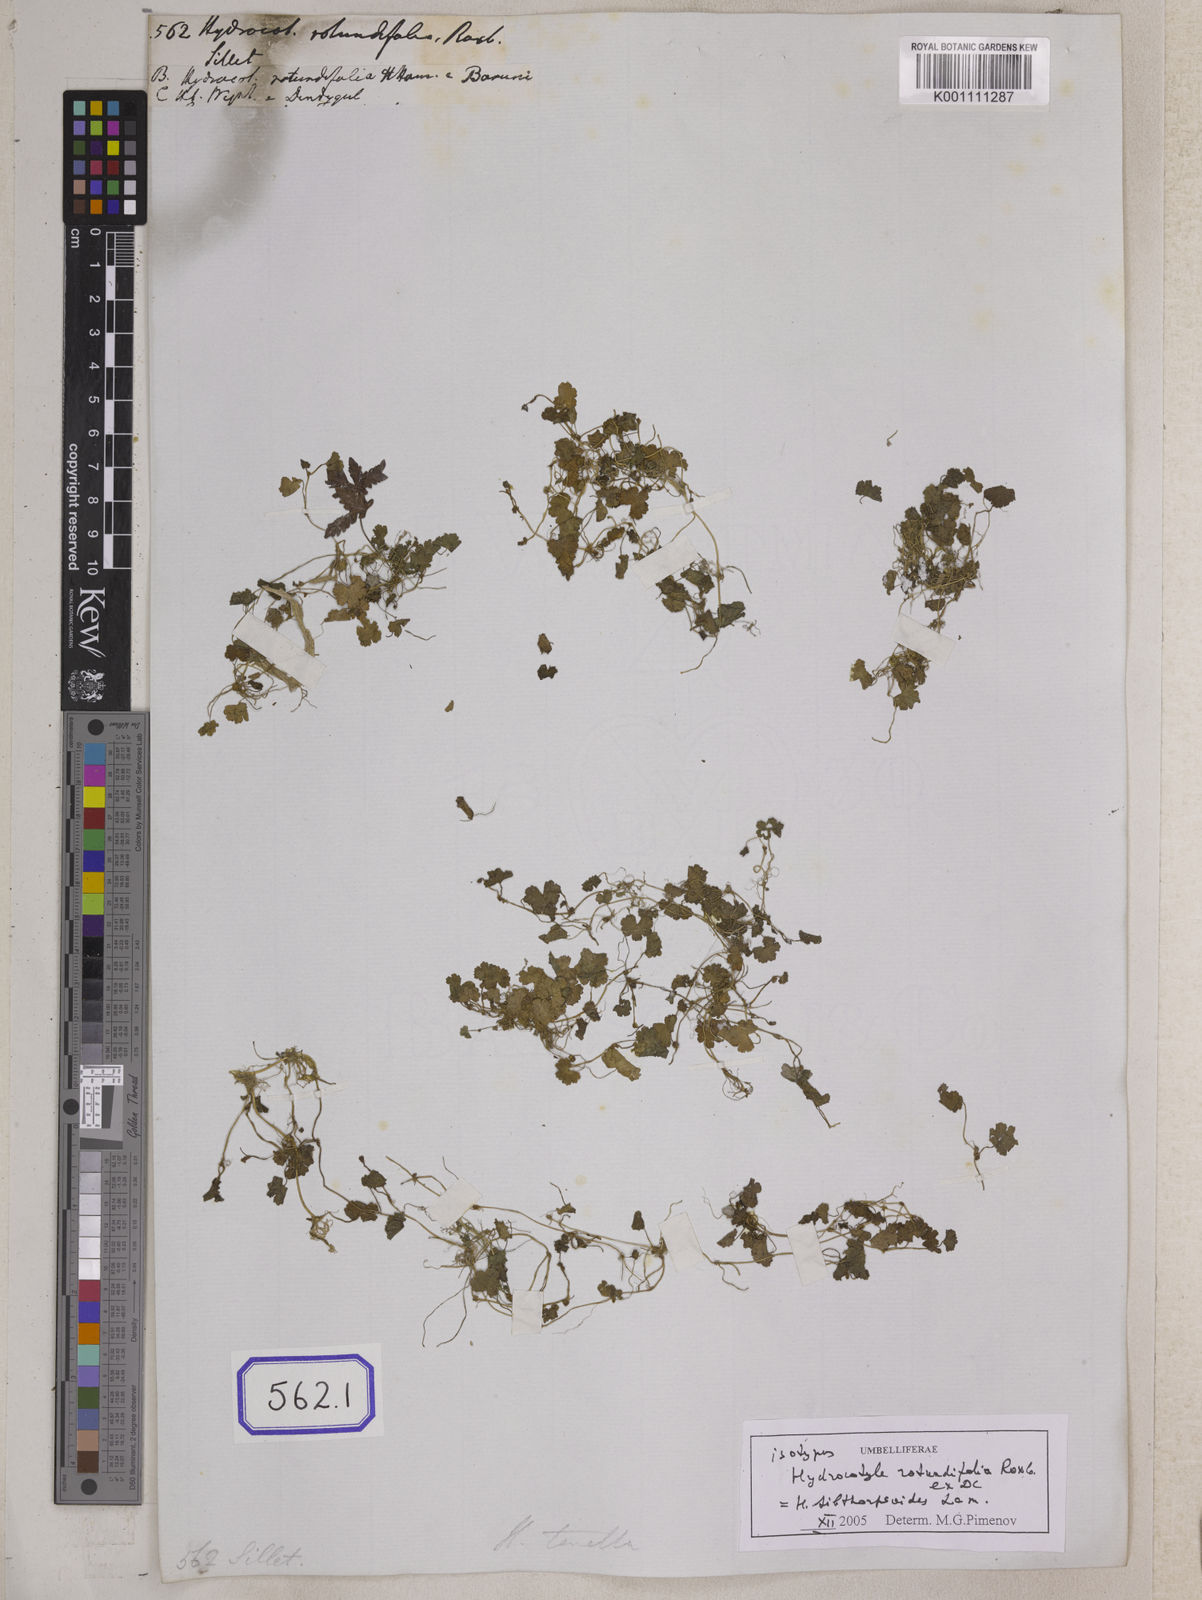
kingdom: Plantae
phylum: Tracheophyta
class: Magnoliopsida
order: Apiales
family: Araliaceae
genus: Hydrocotyle
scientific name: Hydrocotyle
